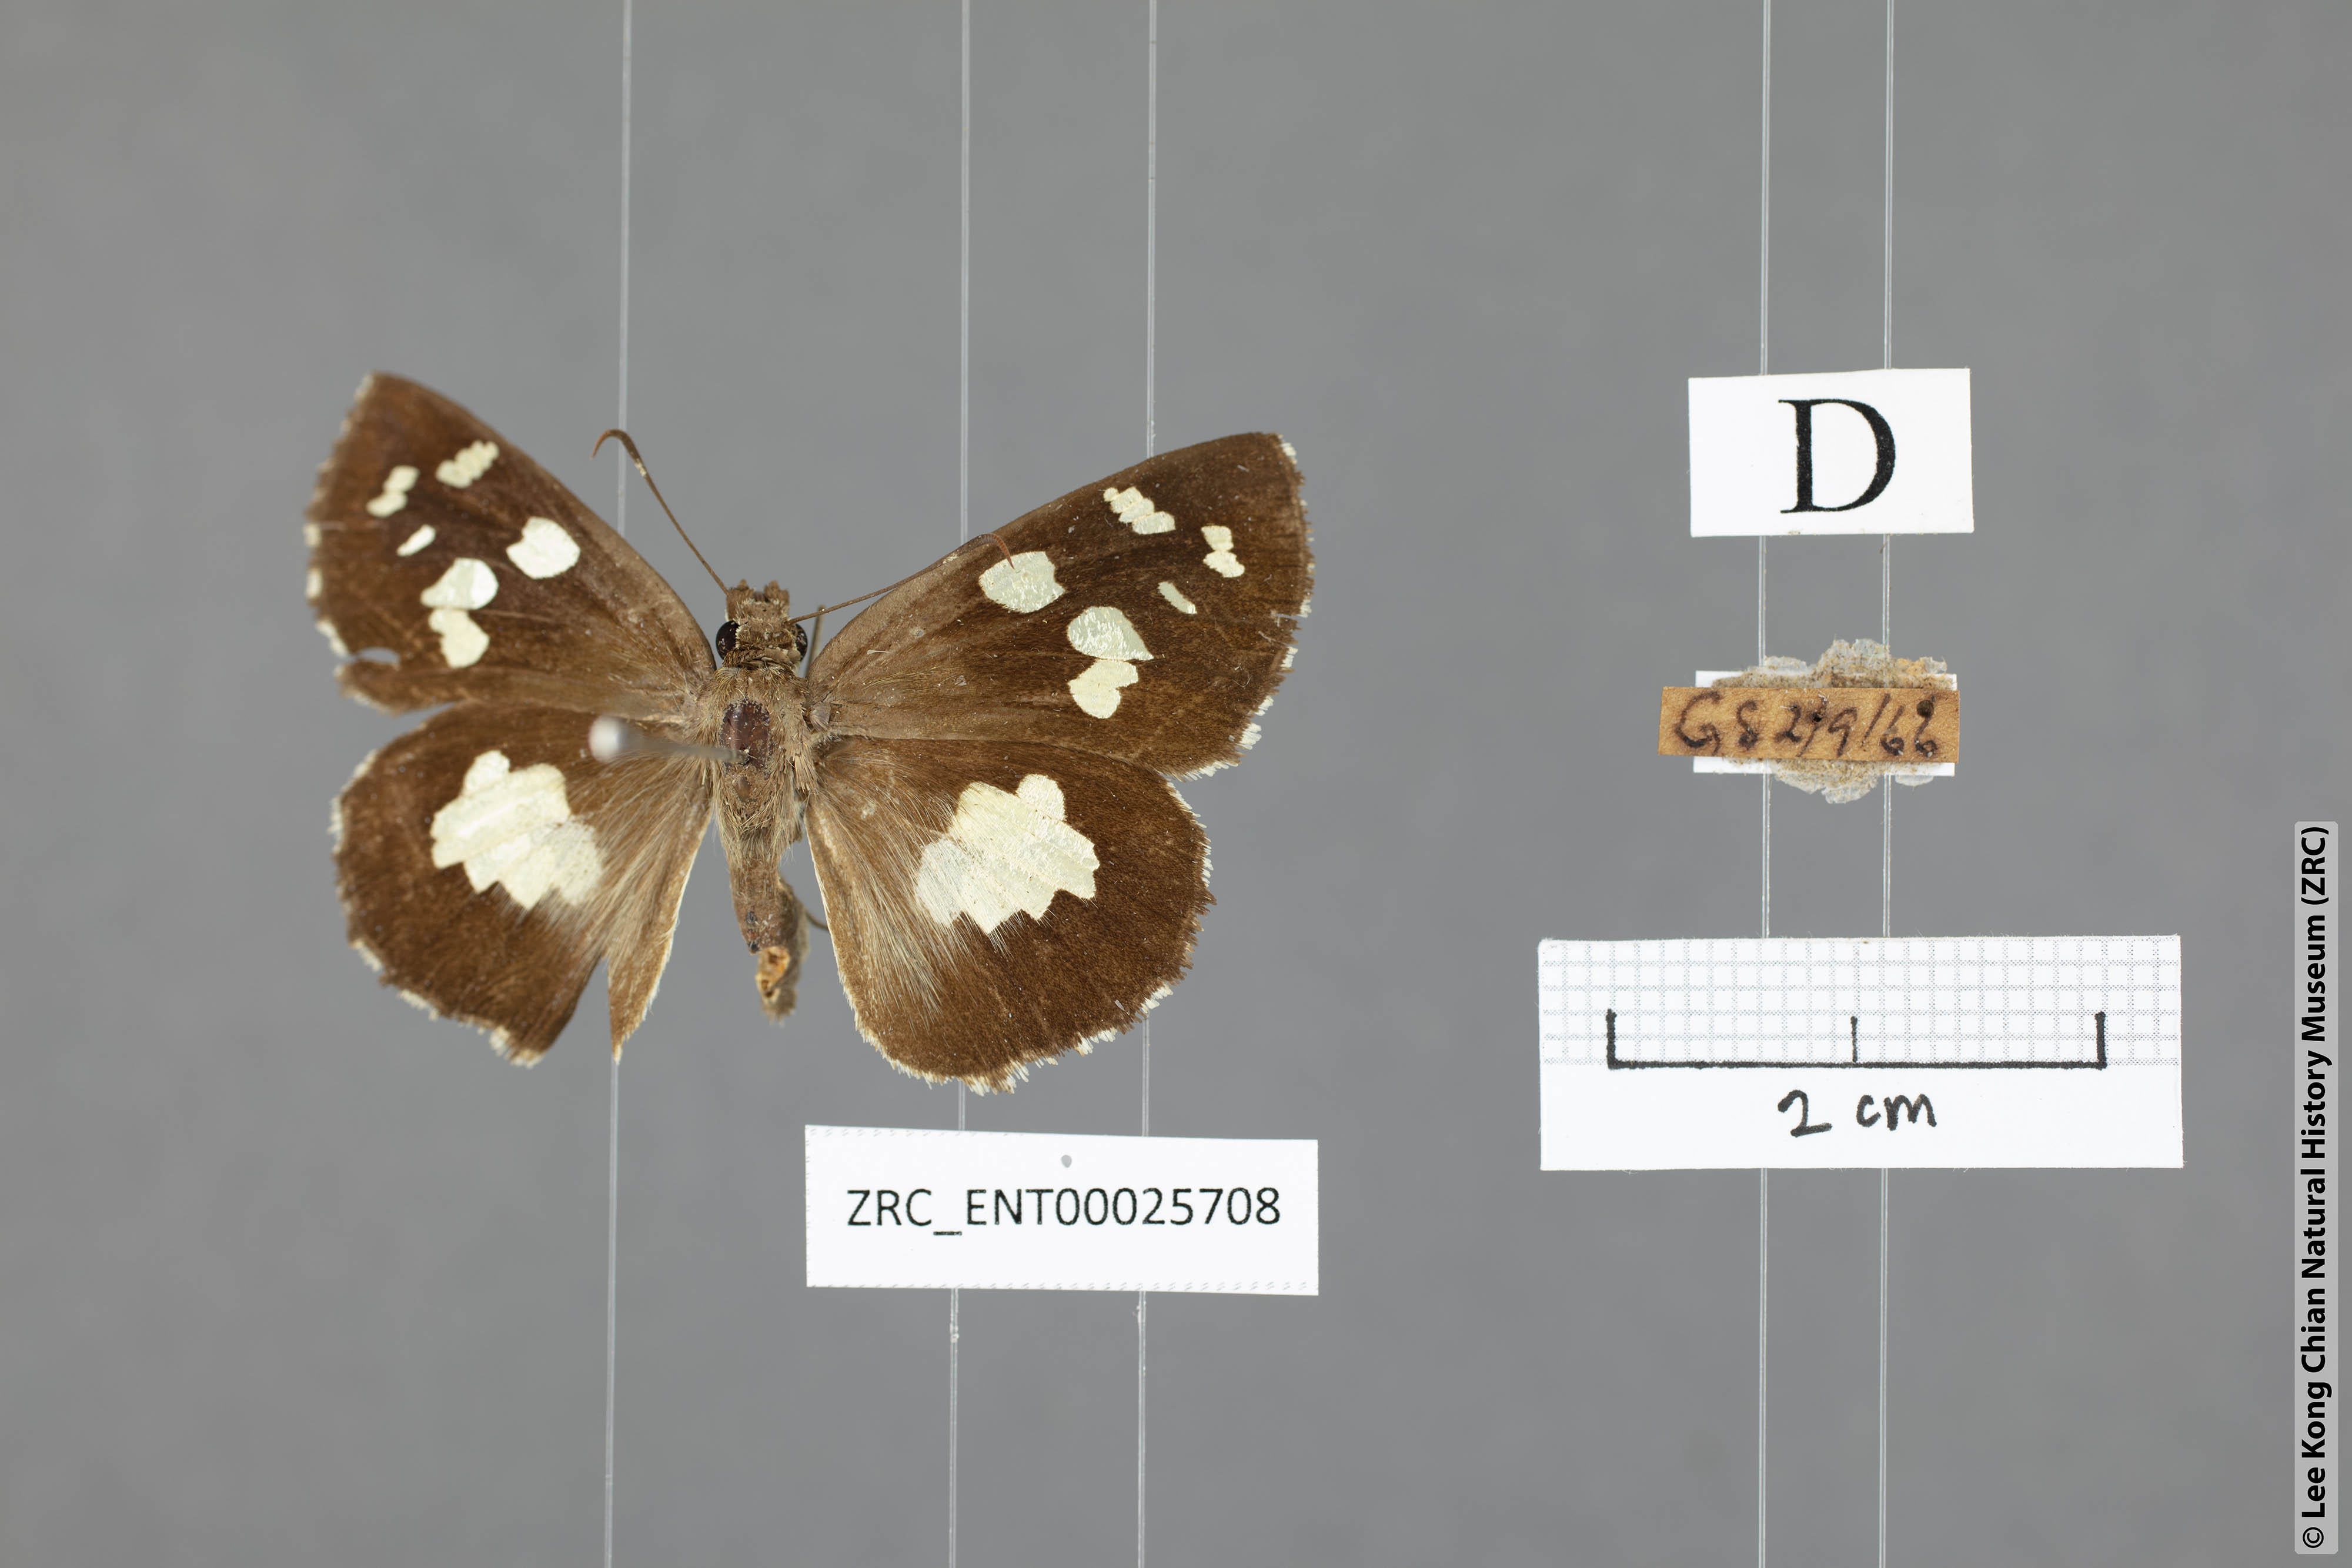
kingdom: Animalia
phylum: Arthropoda
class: Insecta
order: Lepidoptera
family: Hesperiidae
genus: Udaspes
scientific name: Udaspes folus
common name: Grass demon
